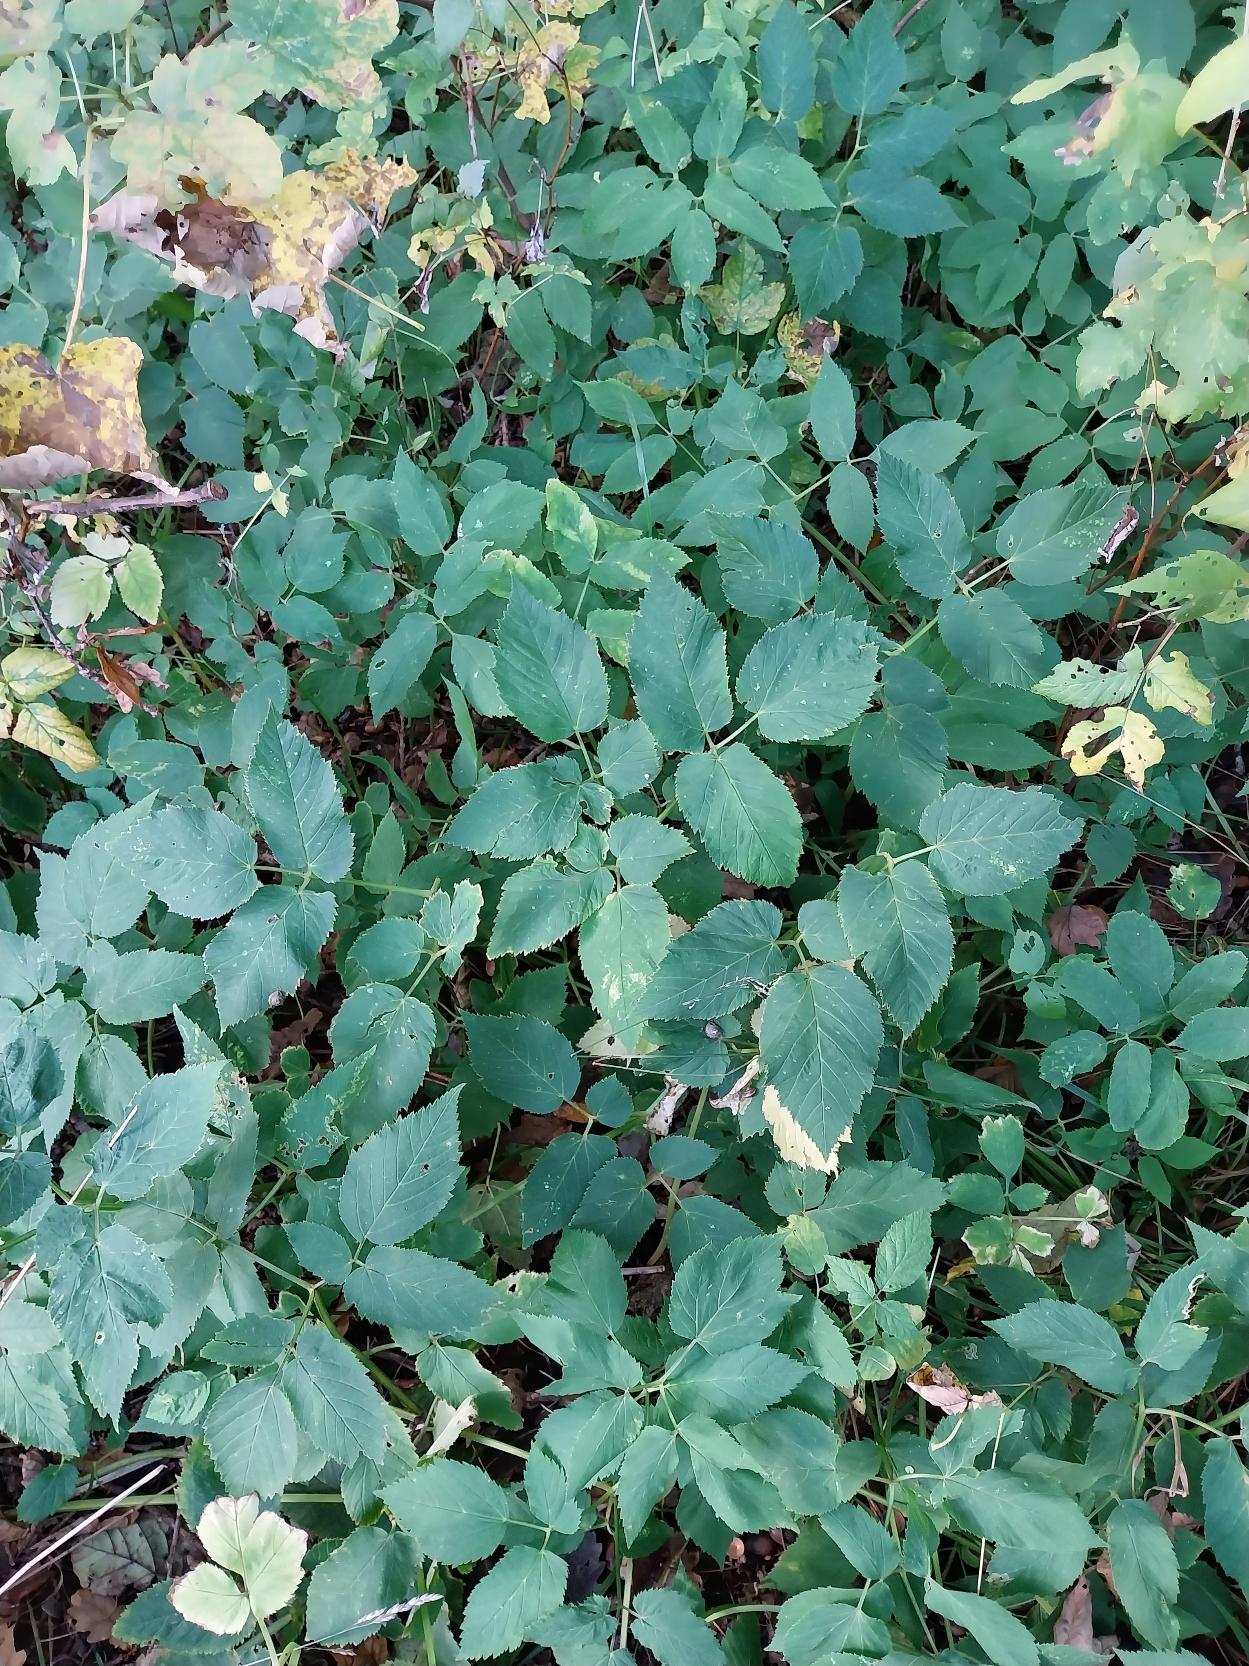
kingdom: Plantae
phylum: Tracheophyta
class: Magnoliopsida
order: Apiales
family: Apiaceae
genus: Aegopodium
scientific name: Aegopodium podagraria
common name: Skvalderkål
